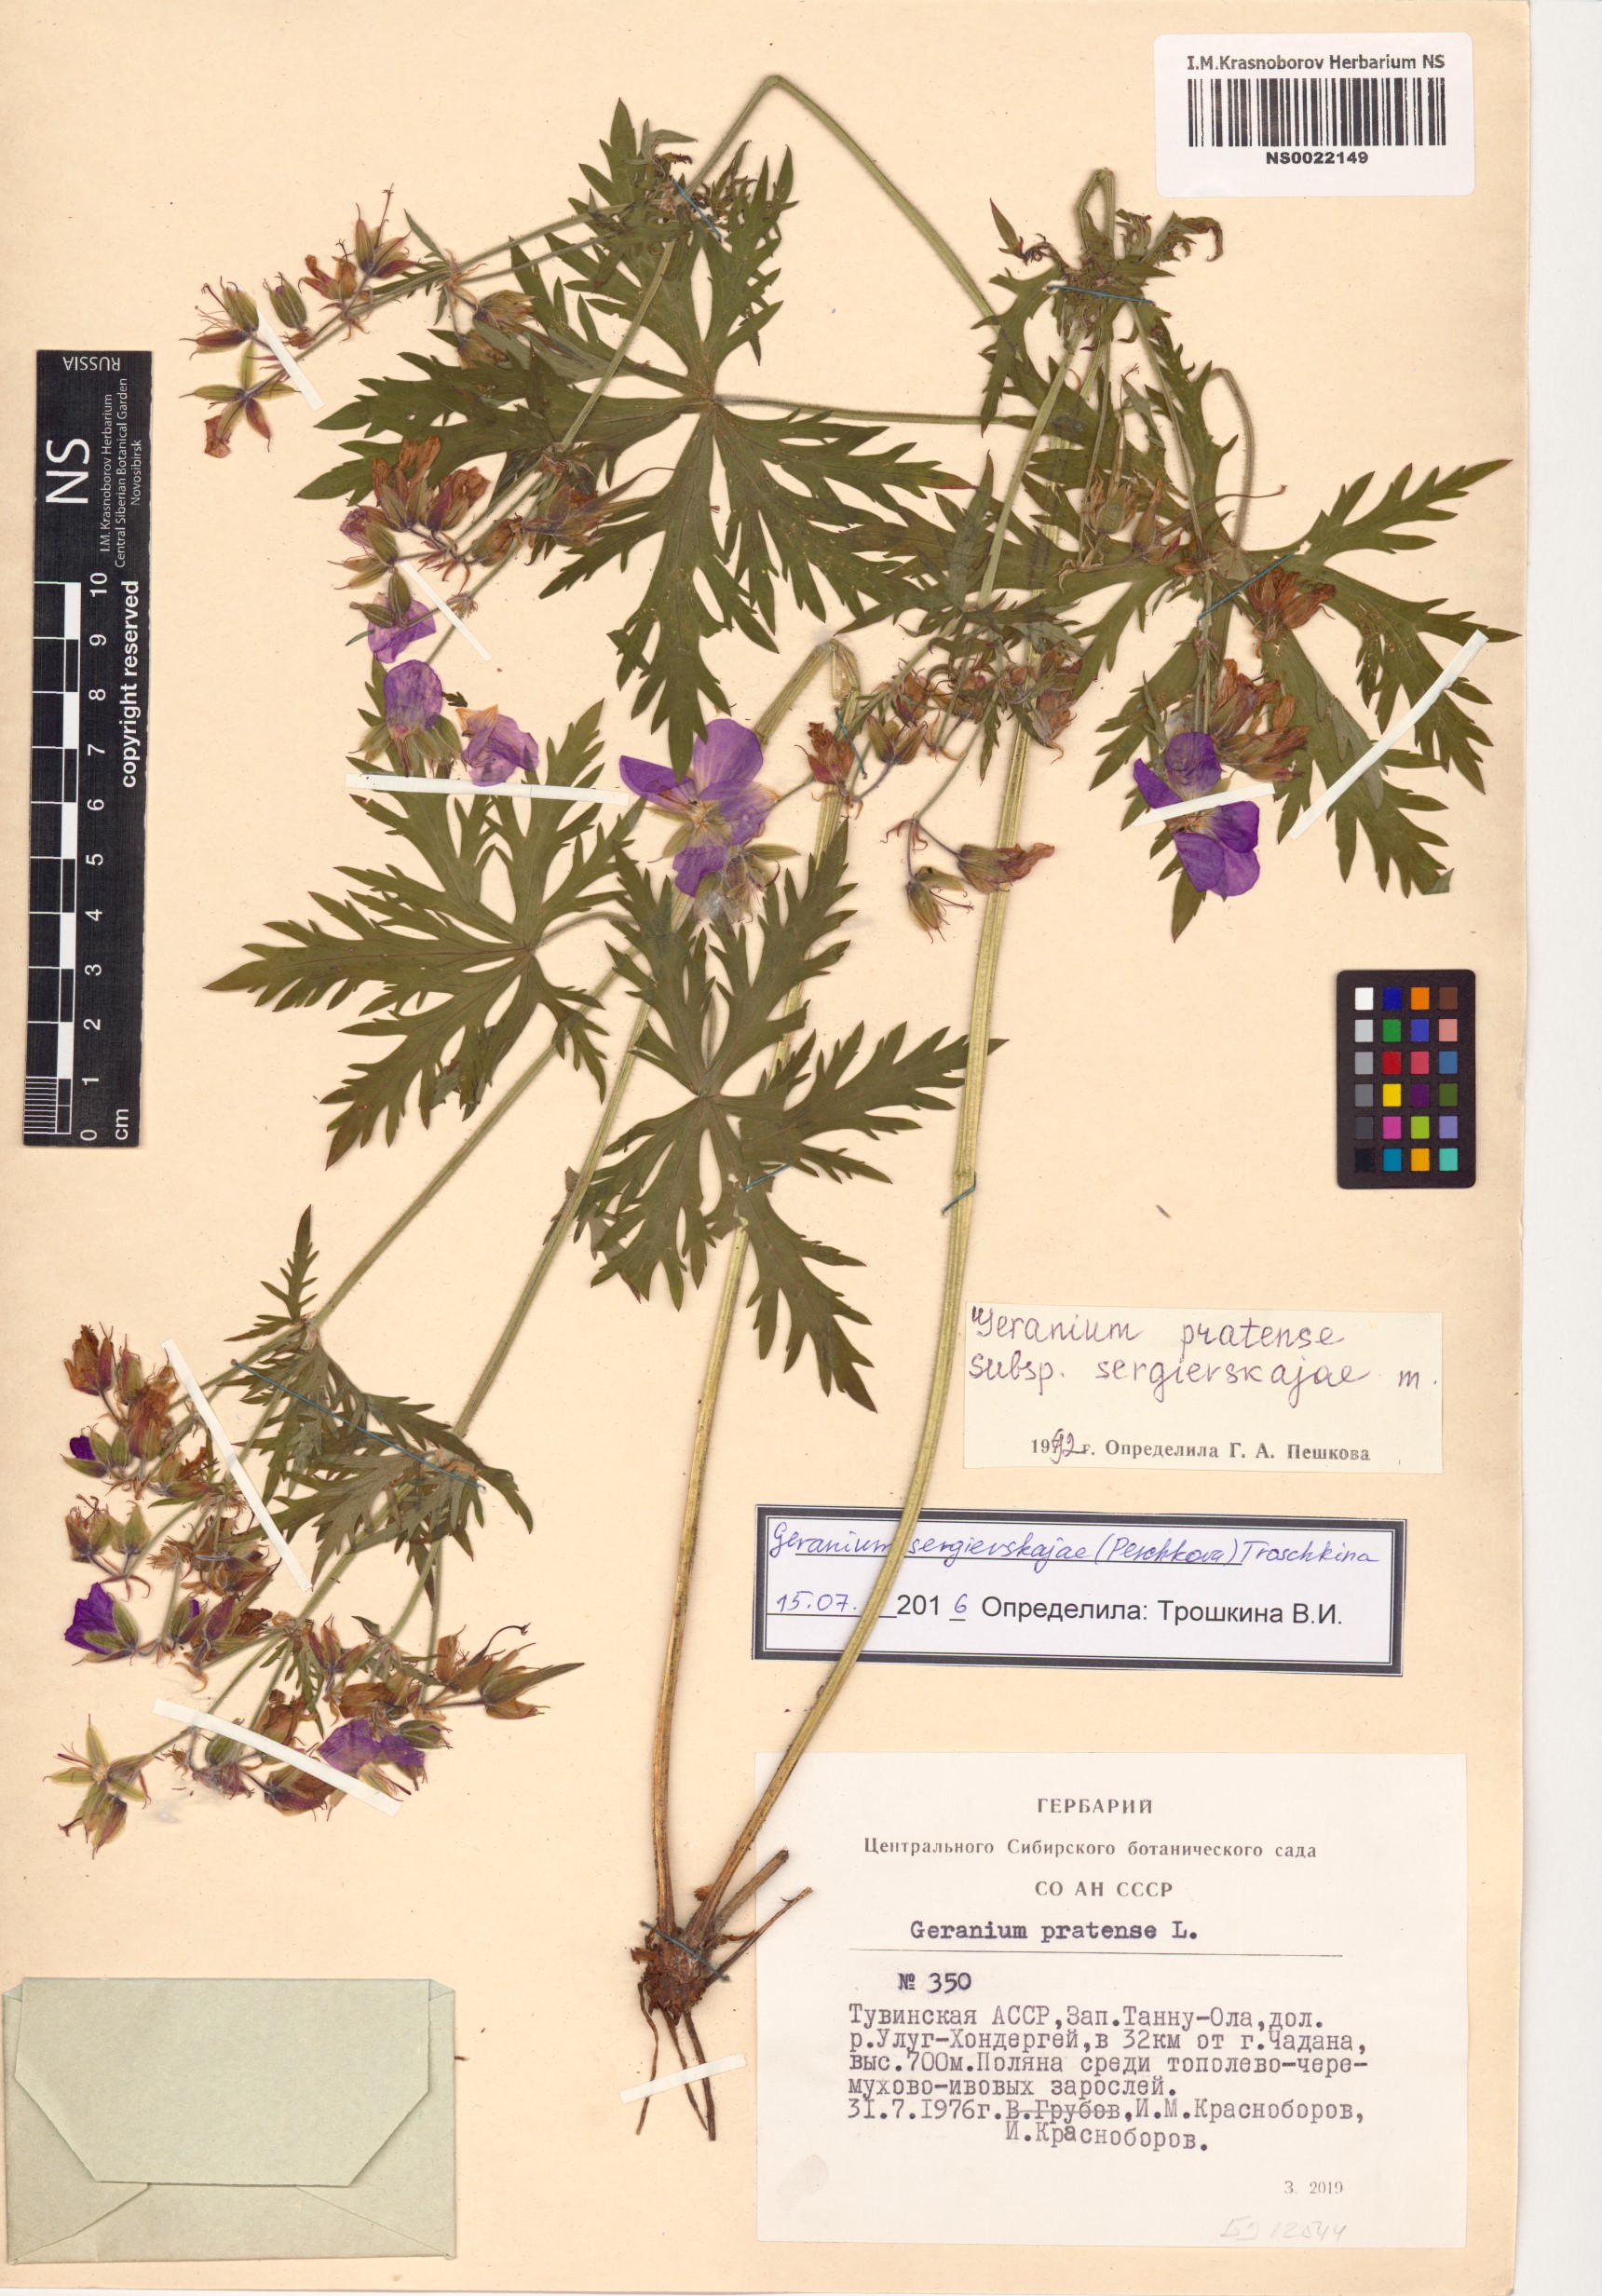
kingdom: Plantae
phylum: Tracheophyta
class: Magnoliopsida
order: Geraniales
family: Geraniaceae
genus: Geranium
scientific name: Geranium pratense
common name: Meadow crane's-bill
